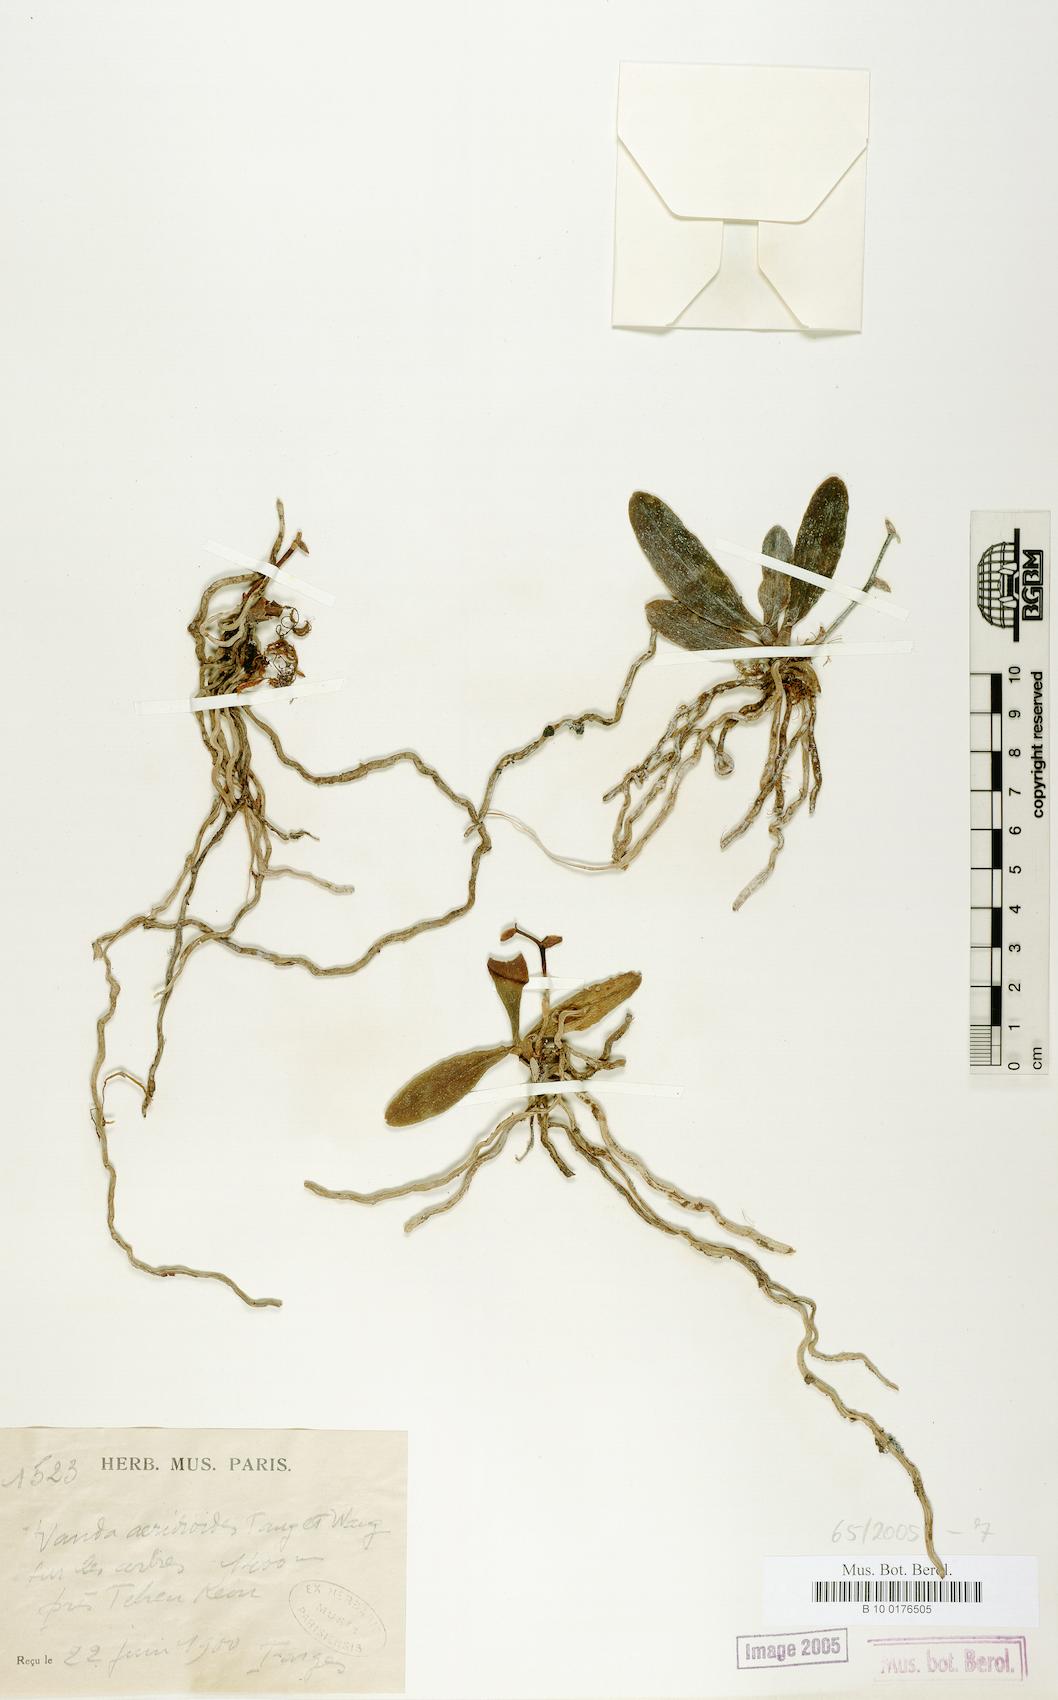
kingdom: Plantae
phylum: Tracheophyta
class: Liliopsida
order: Asparagales
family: Orchidaceae
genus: Vanda
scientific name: Vanda
